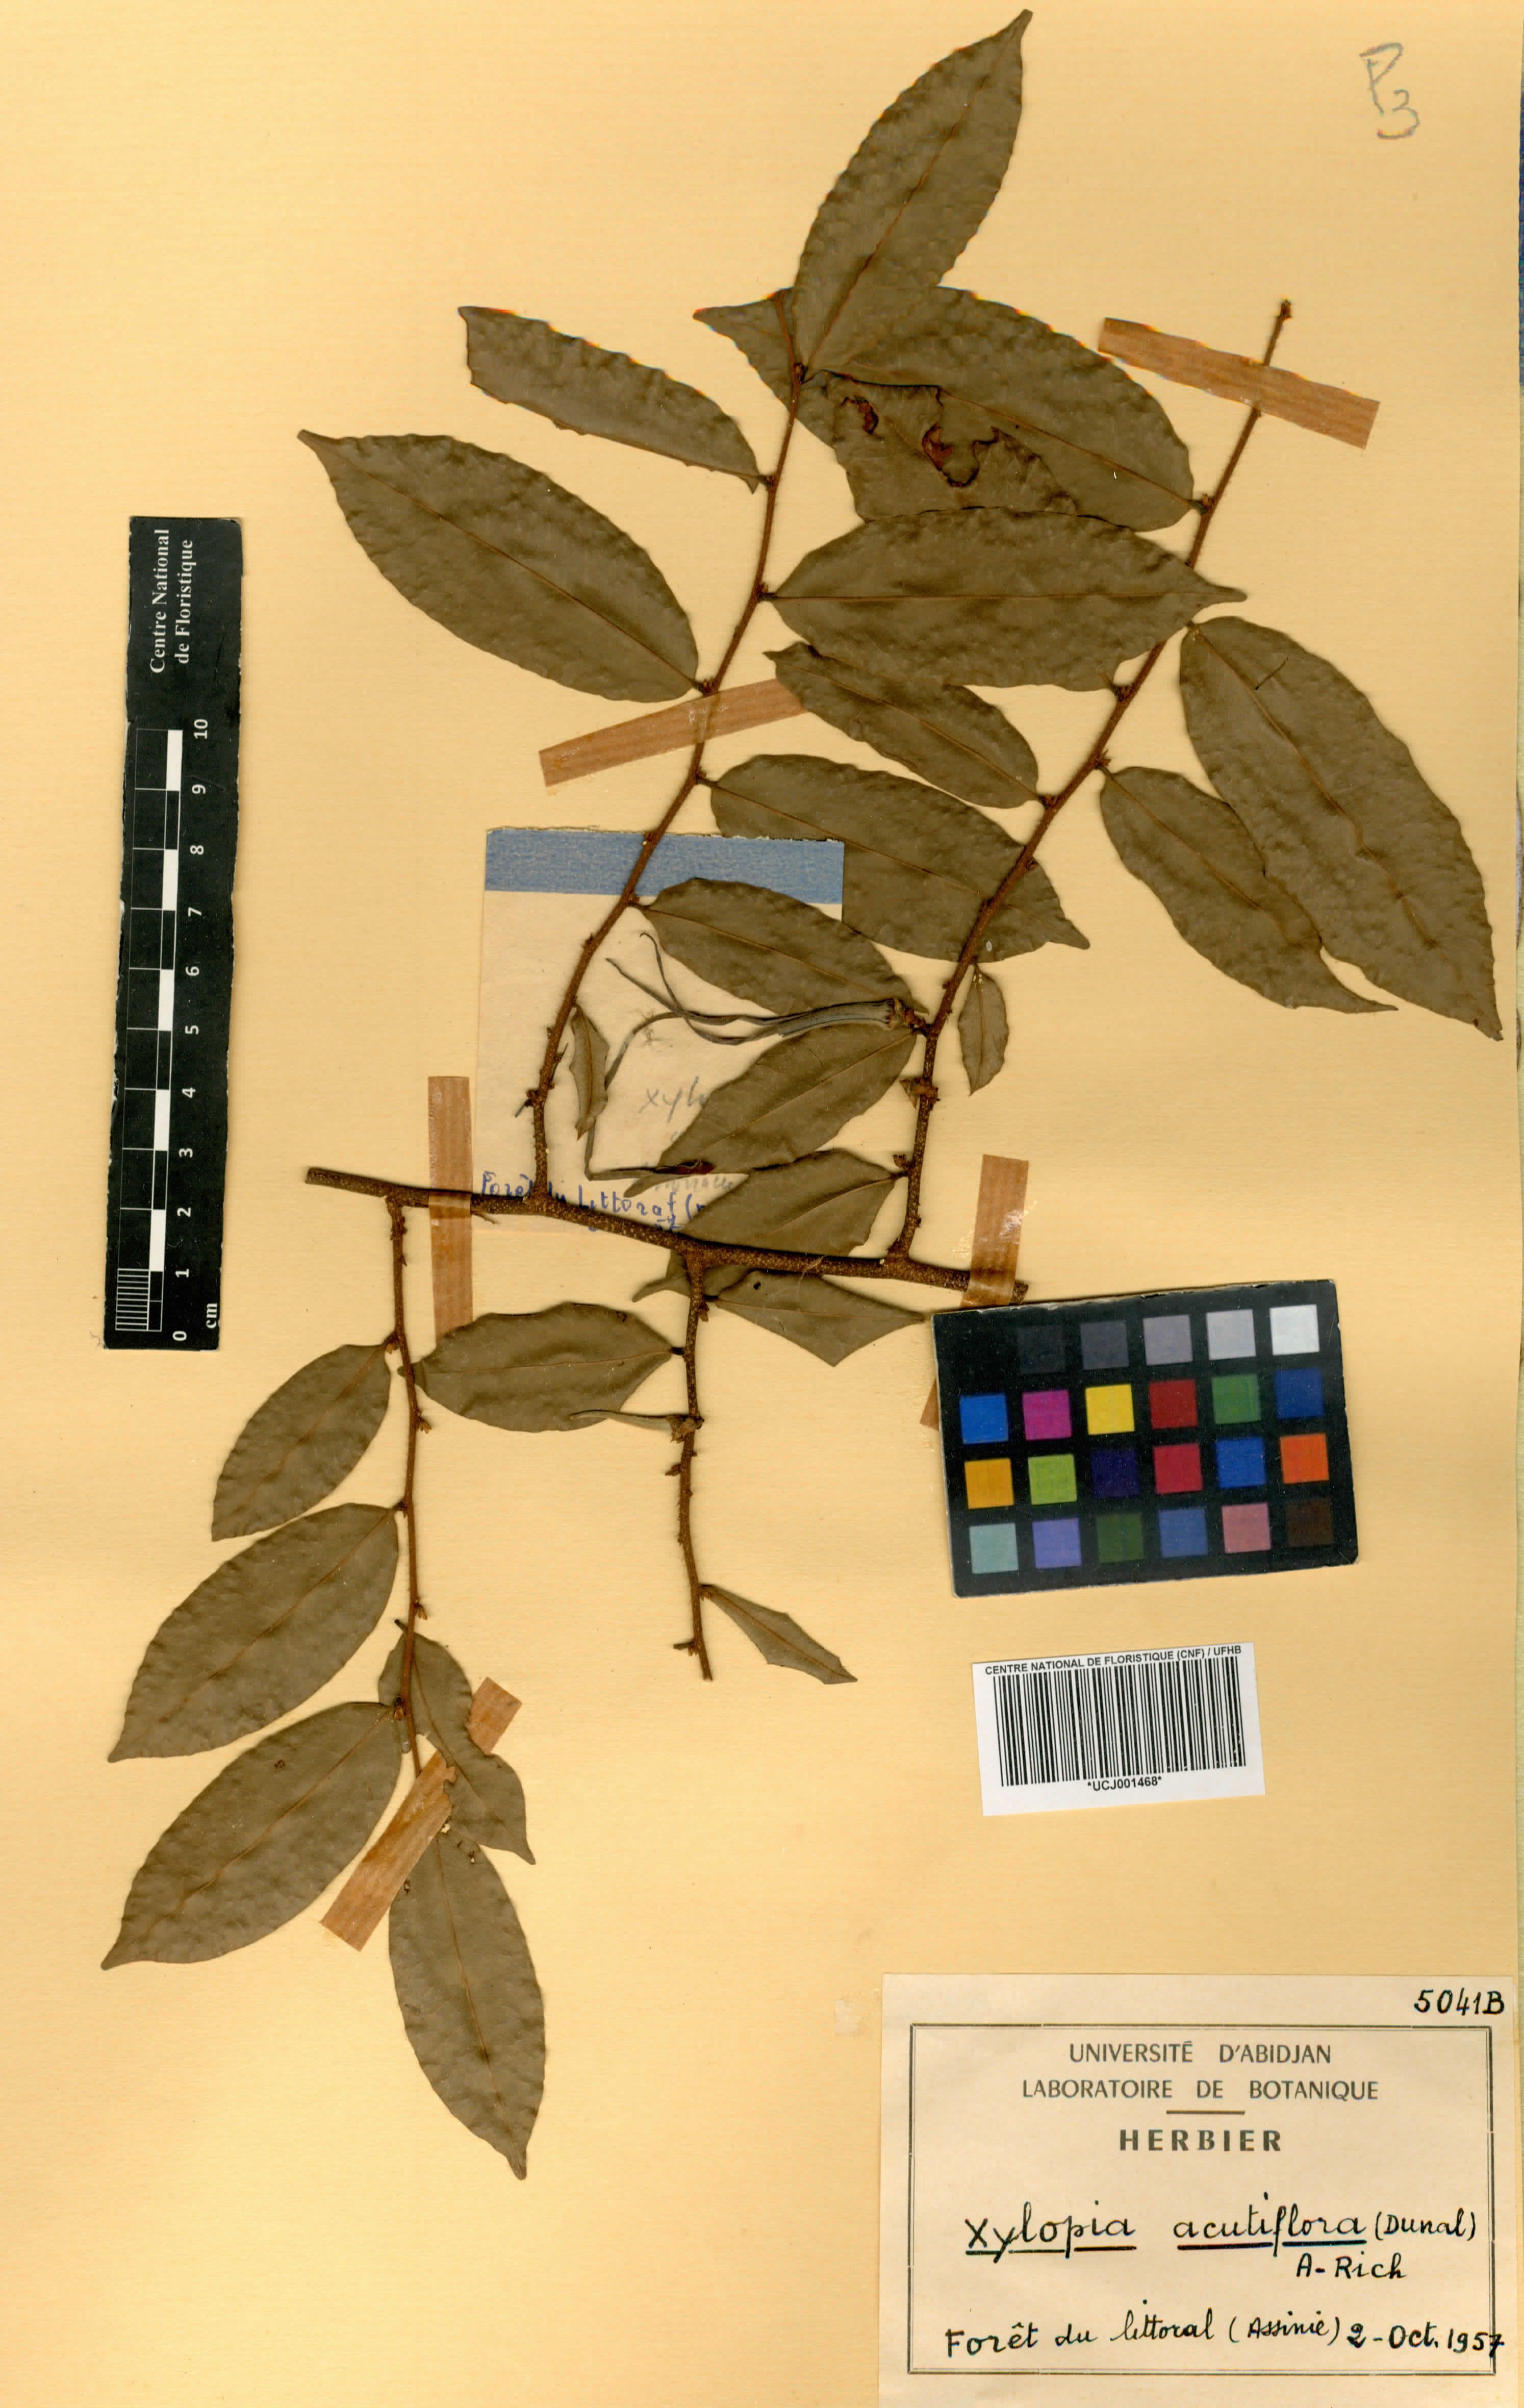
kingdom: Plantae
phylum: Tracheophyta
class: Magnoliopsida
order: Magnoliales
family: Annonaceae
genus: Xylopia
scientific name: Xylopia acutiflora
